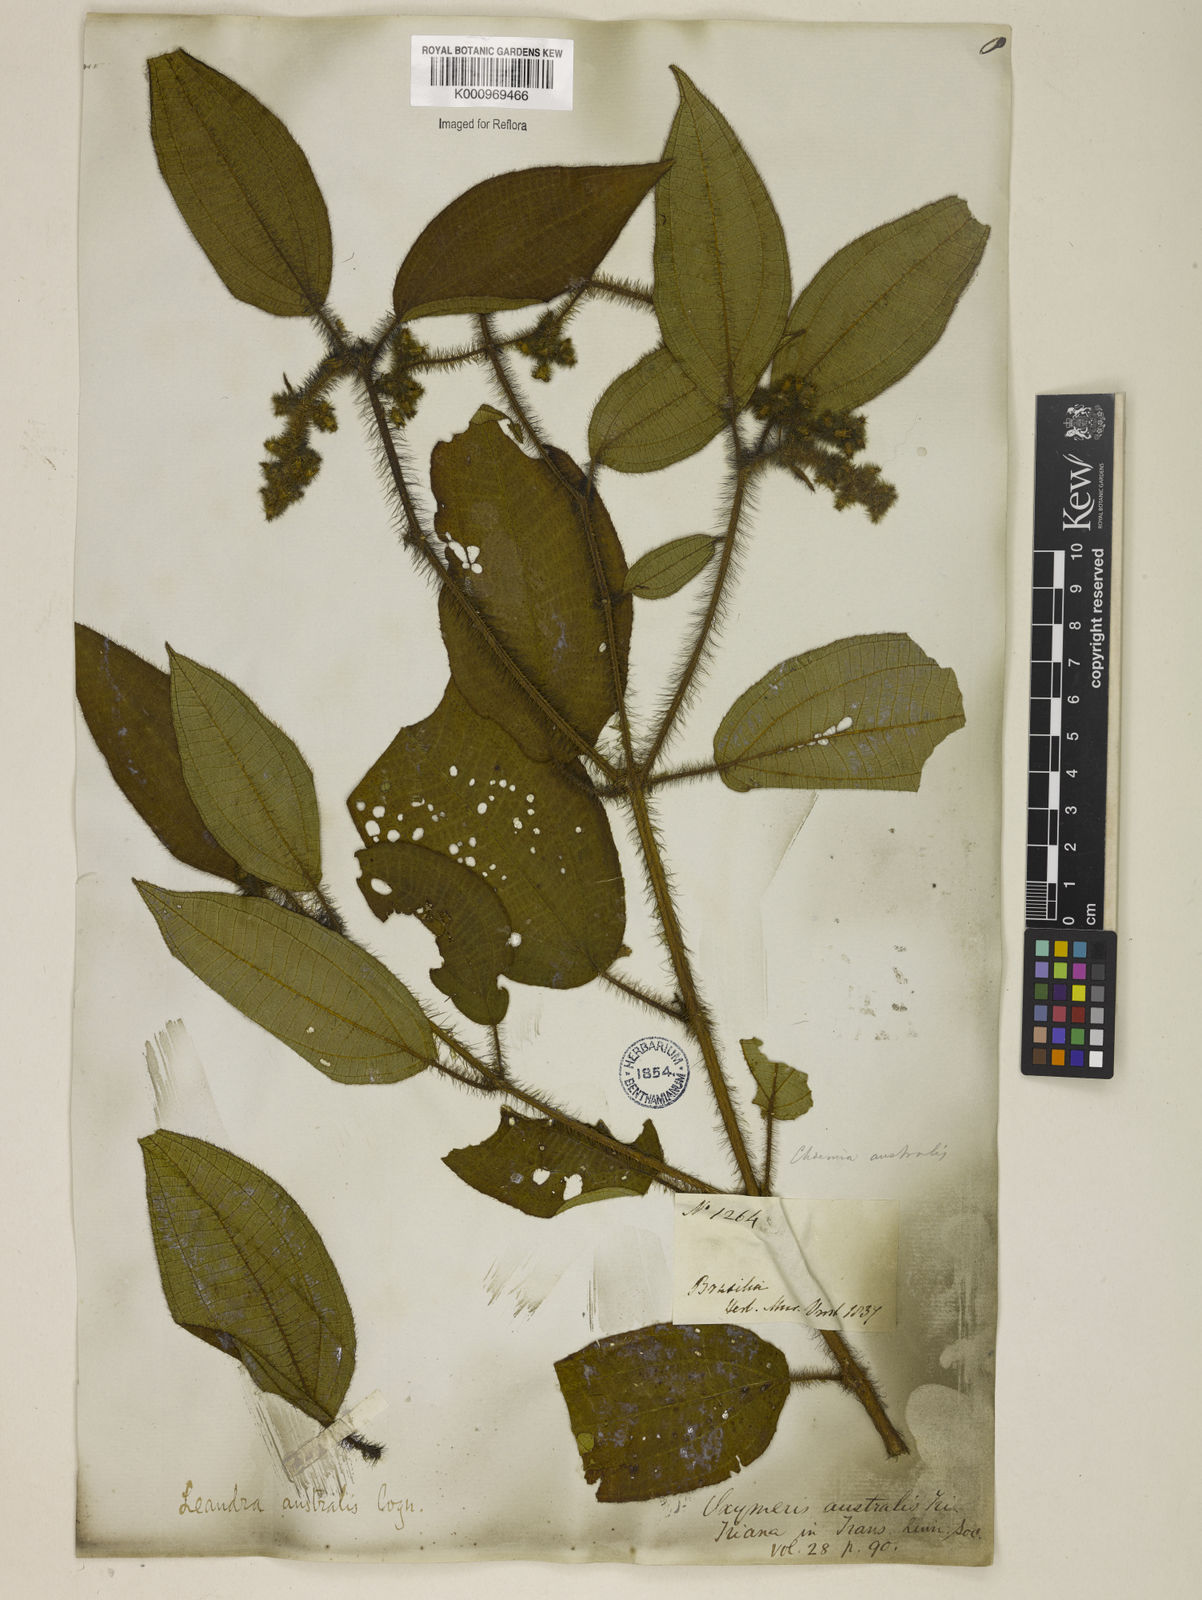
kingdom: Plantae
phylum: Tracheophyta
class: Magnoliopsida
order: Myrtales
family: Melastomataceae
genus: Miconia
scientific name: Miconia australis
